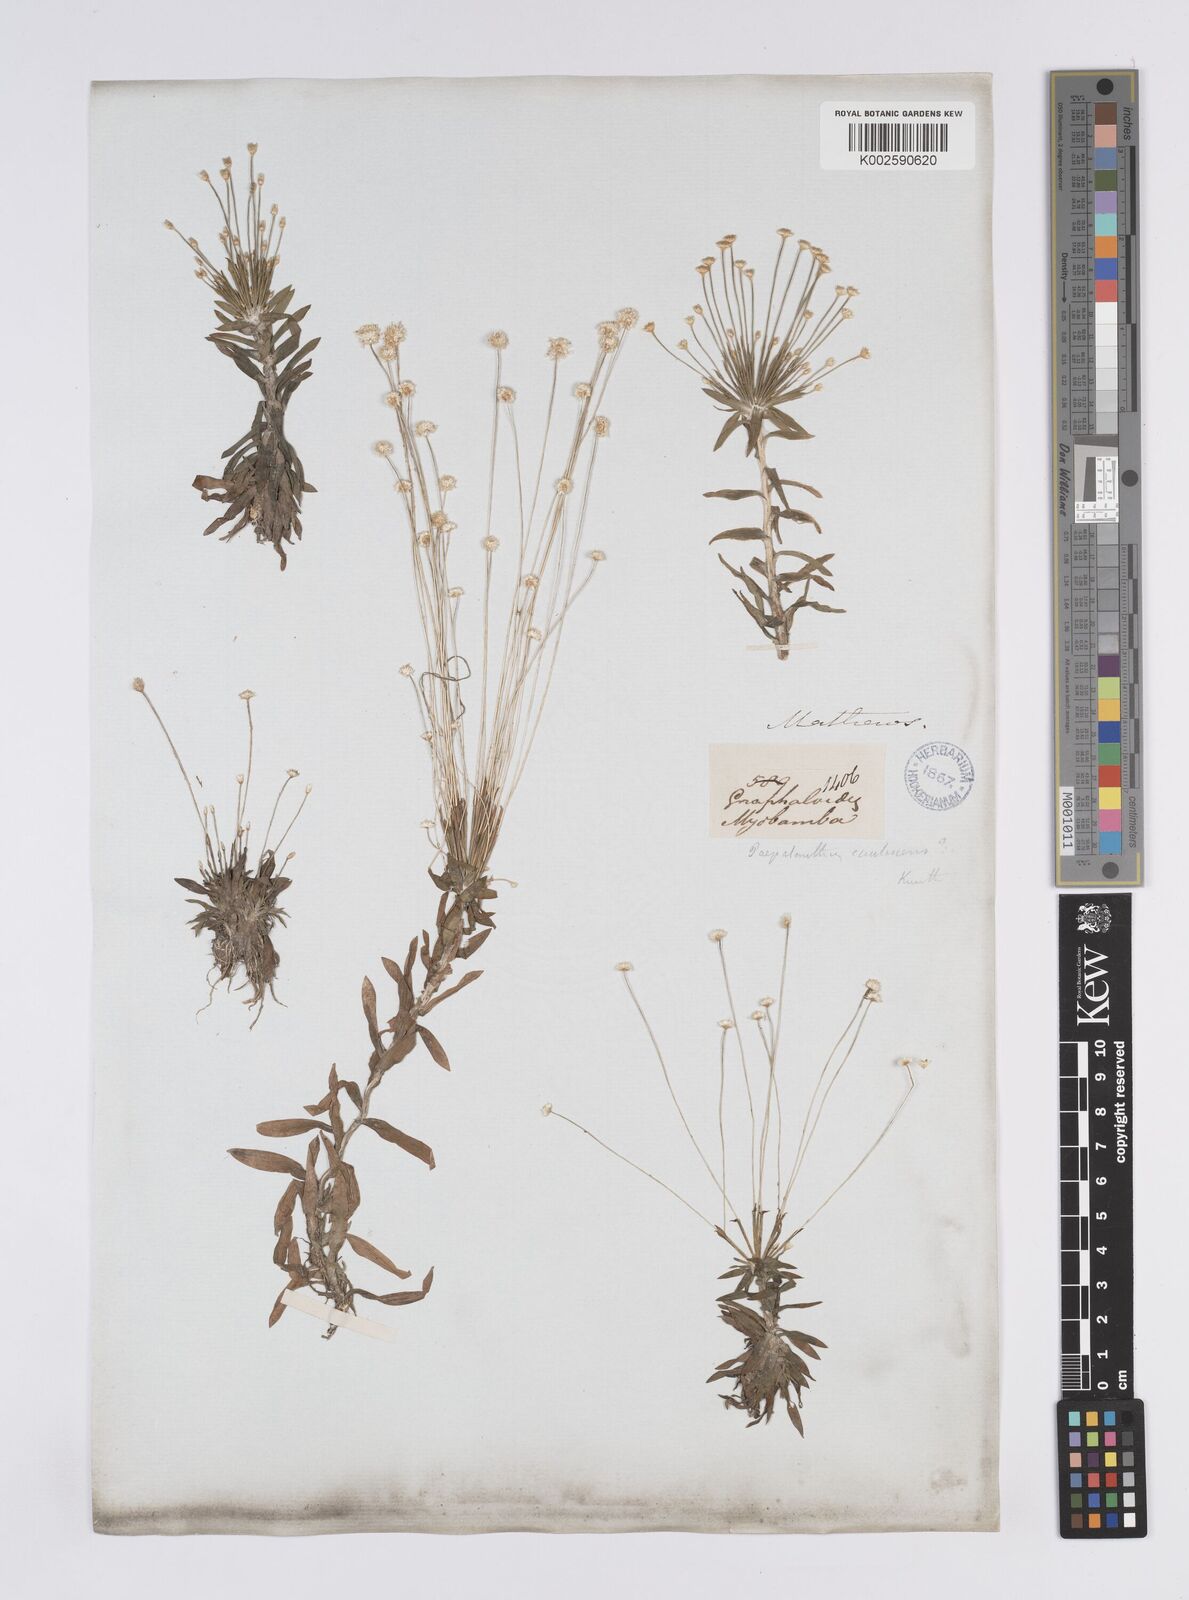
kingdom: Plantae
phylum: Tracheophyta
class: Liliopsida
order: Poales
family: Eriocaulaceae
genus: Syngonanthus
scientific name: Syngonanthus caulescens
